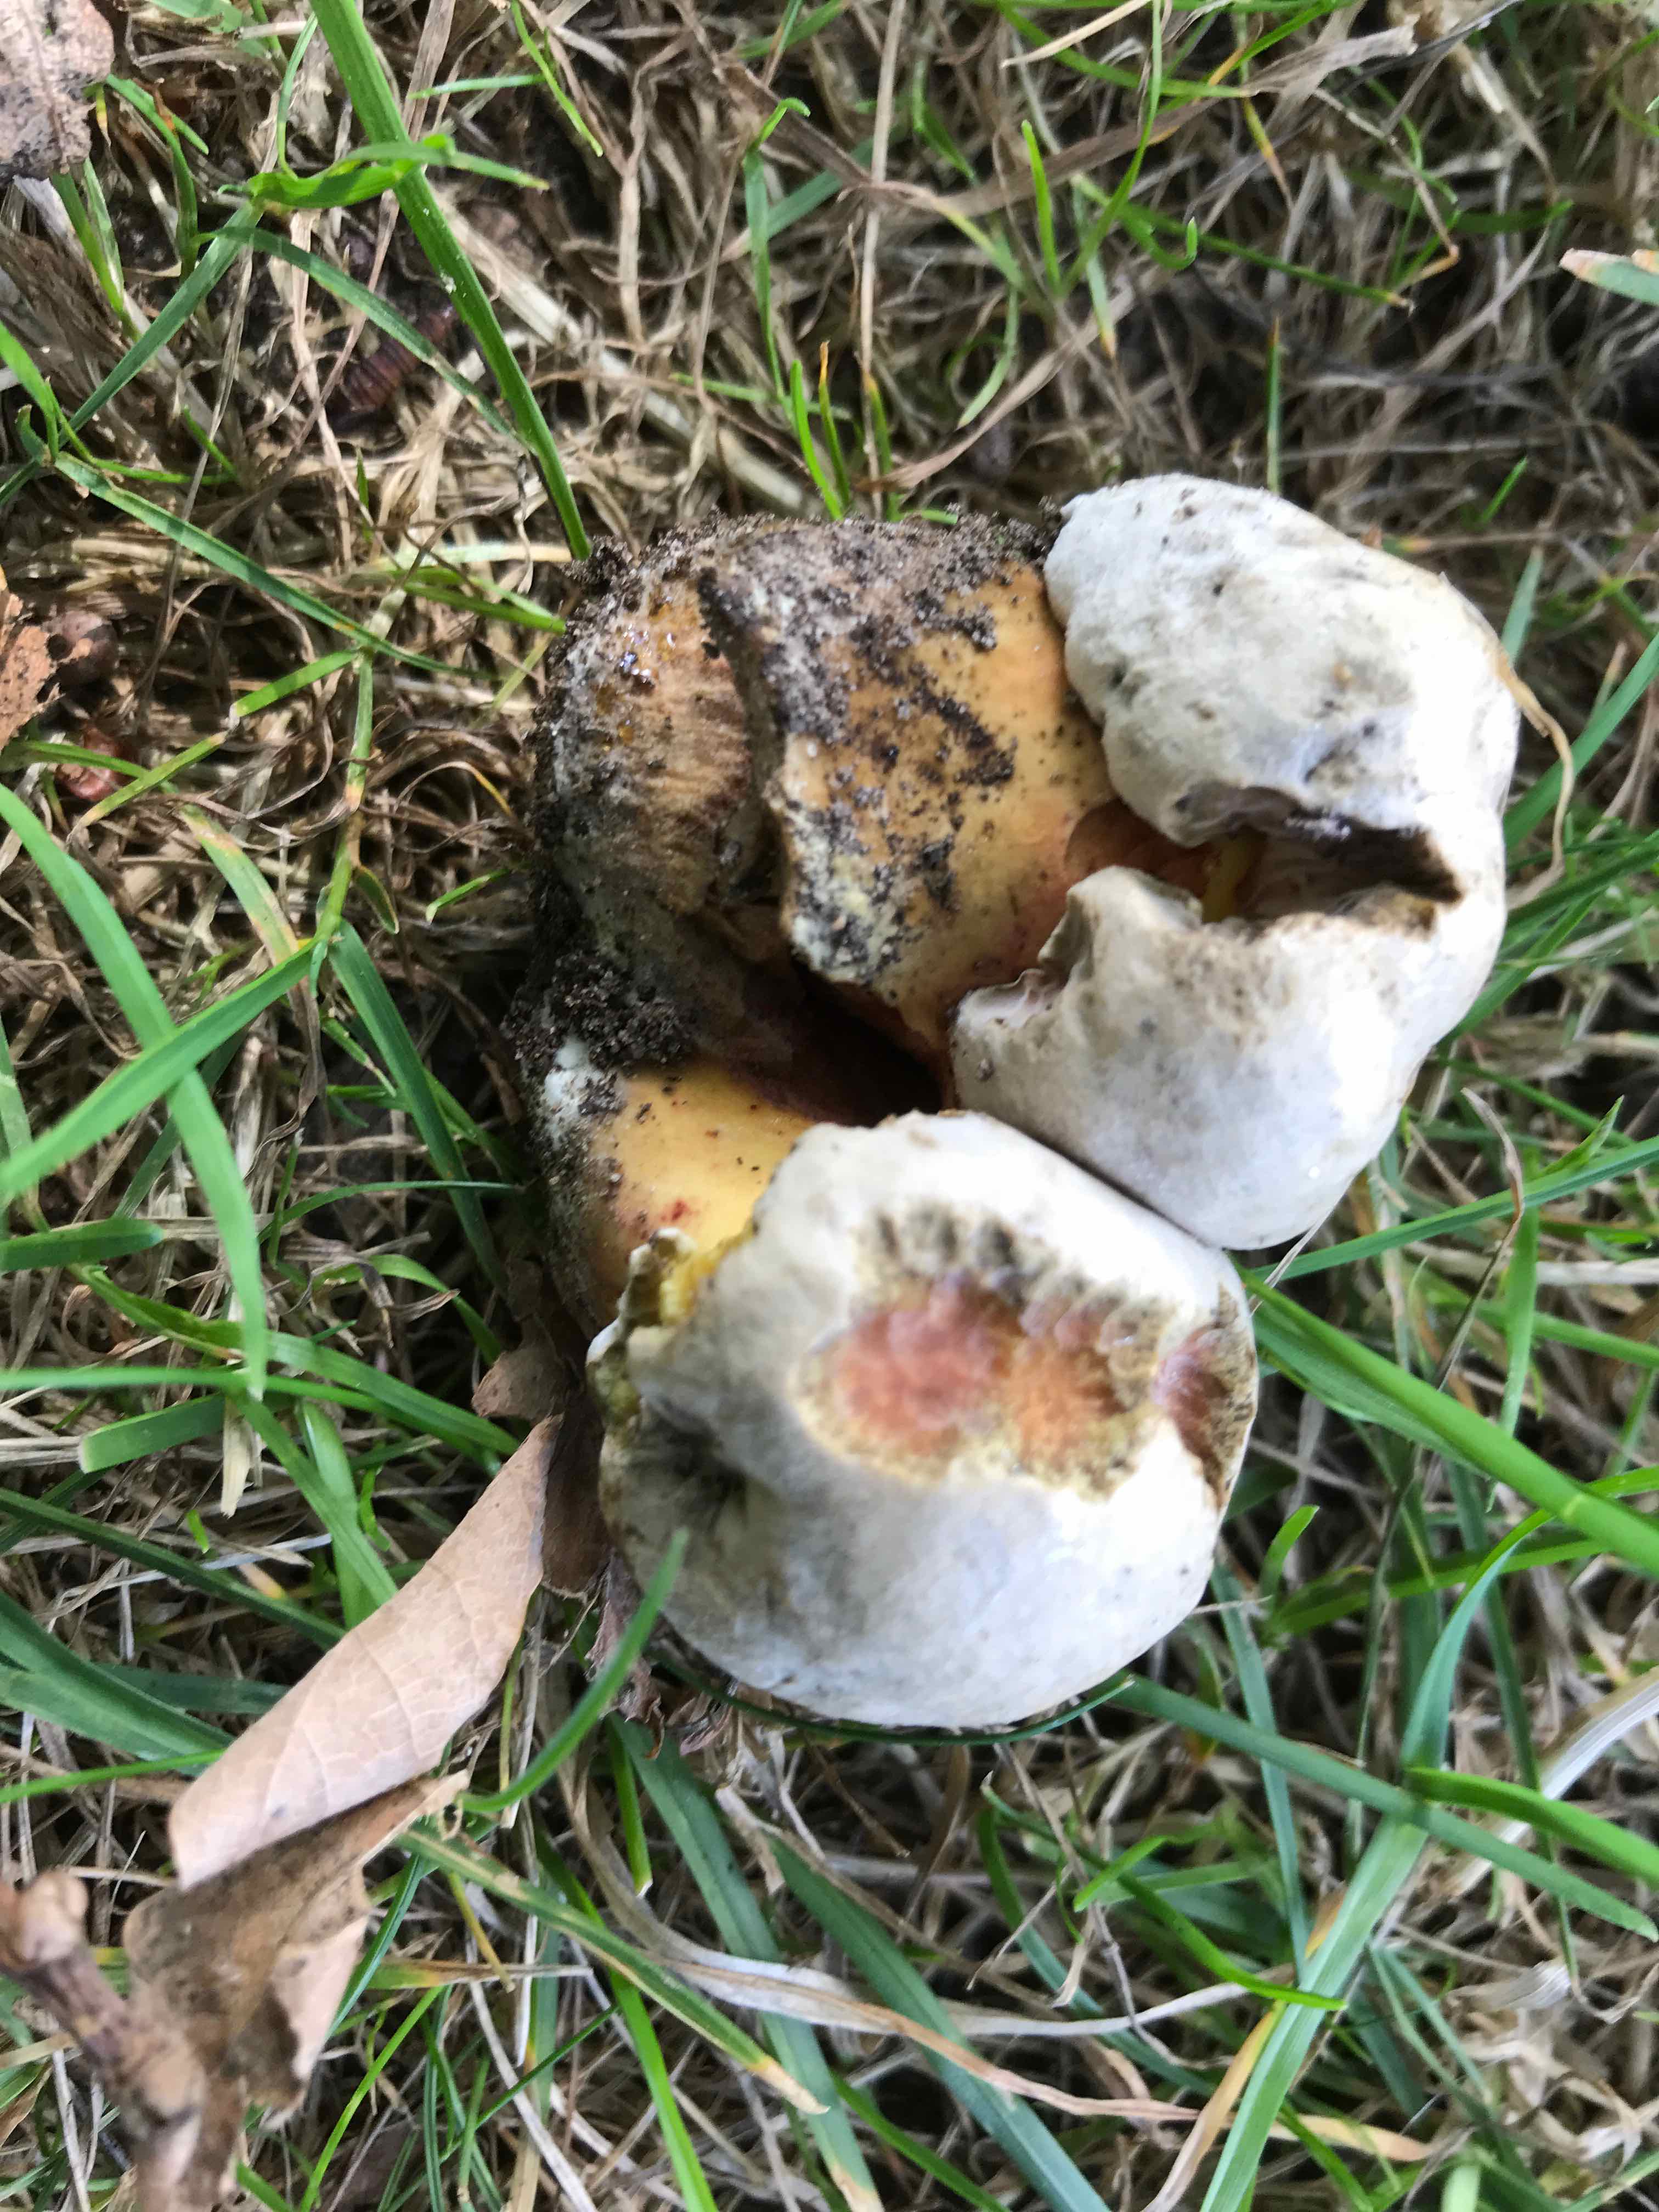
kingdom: Fungi
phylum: Basidiomycota
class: Agaricomycetes
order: Boletales
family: Boletaceae
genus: Caloboletus
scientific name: Caloboletus radicans
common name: rod-rørhat
